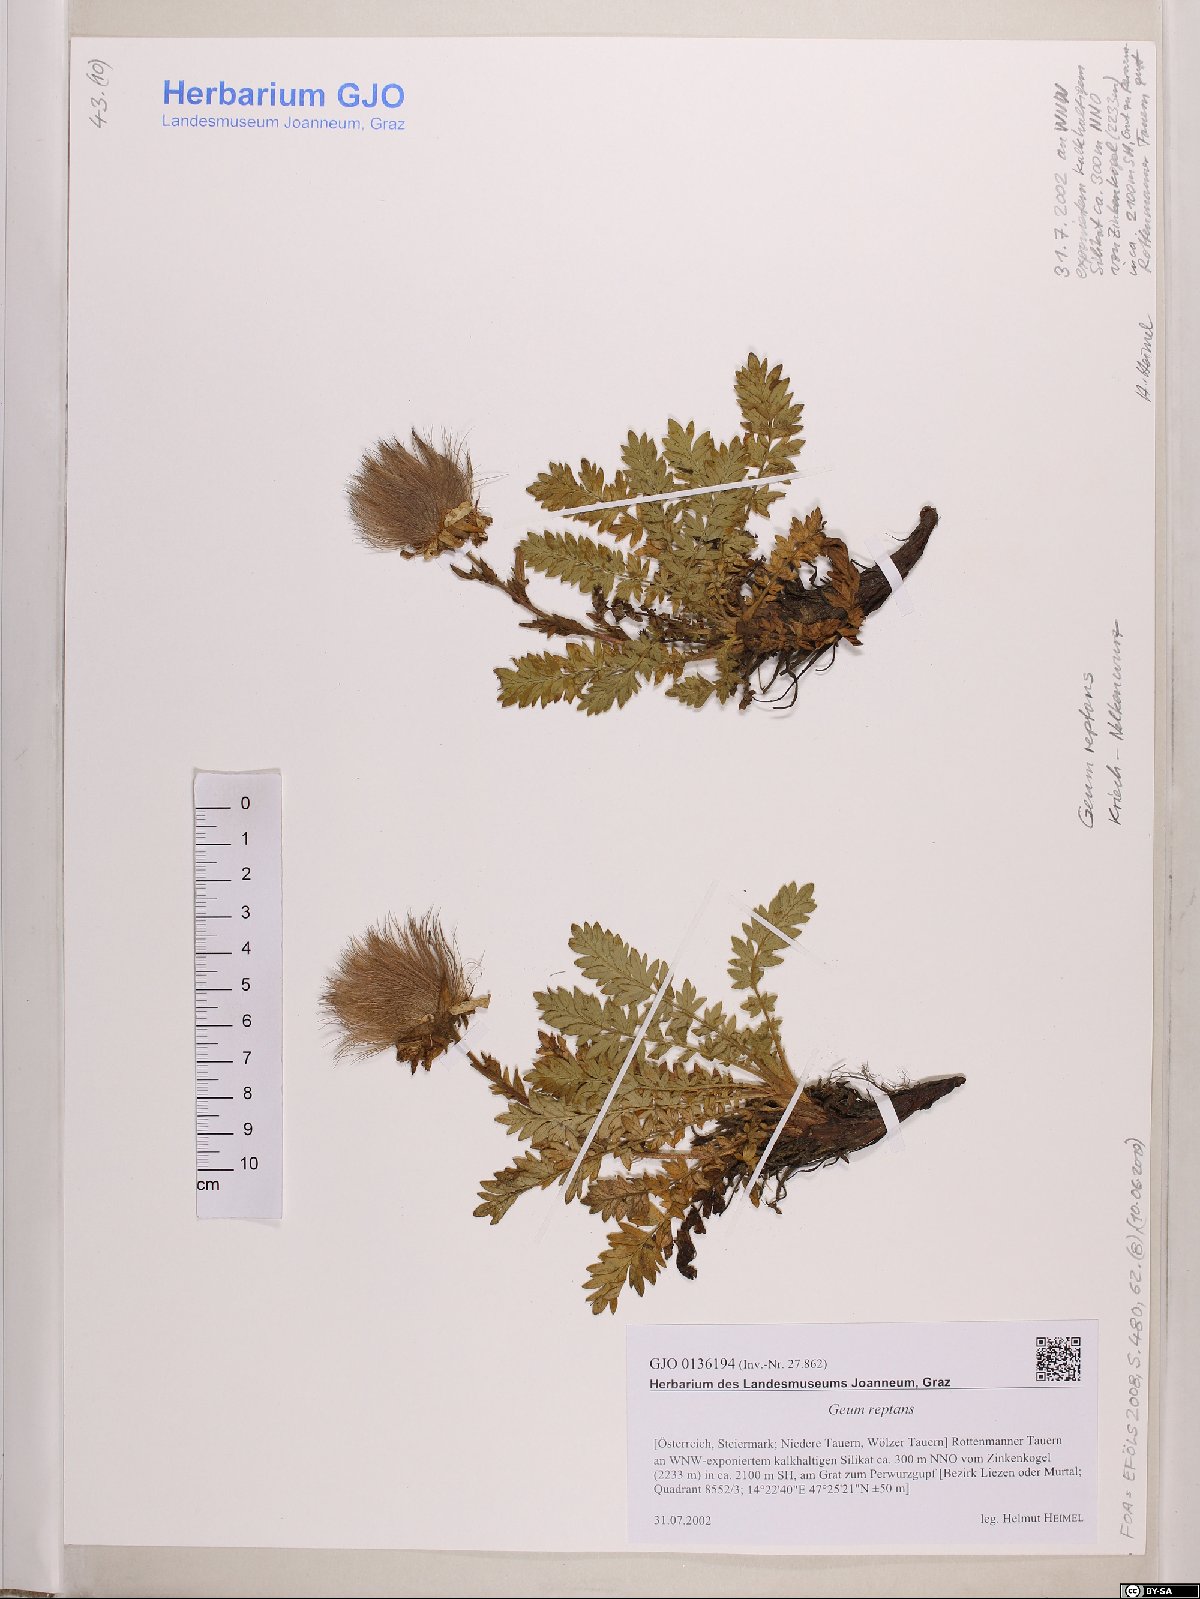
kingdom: Plantae
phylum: Tracheophyta
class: Magnoliopsida
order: Rosales
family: Rosaceae
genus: Geum
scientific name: Geum reptans
